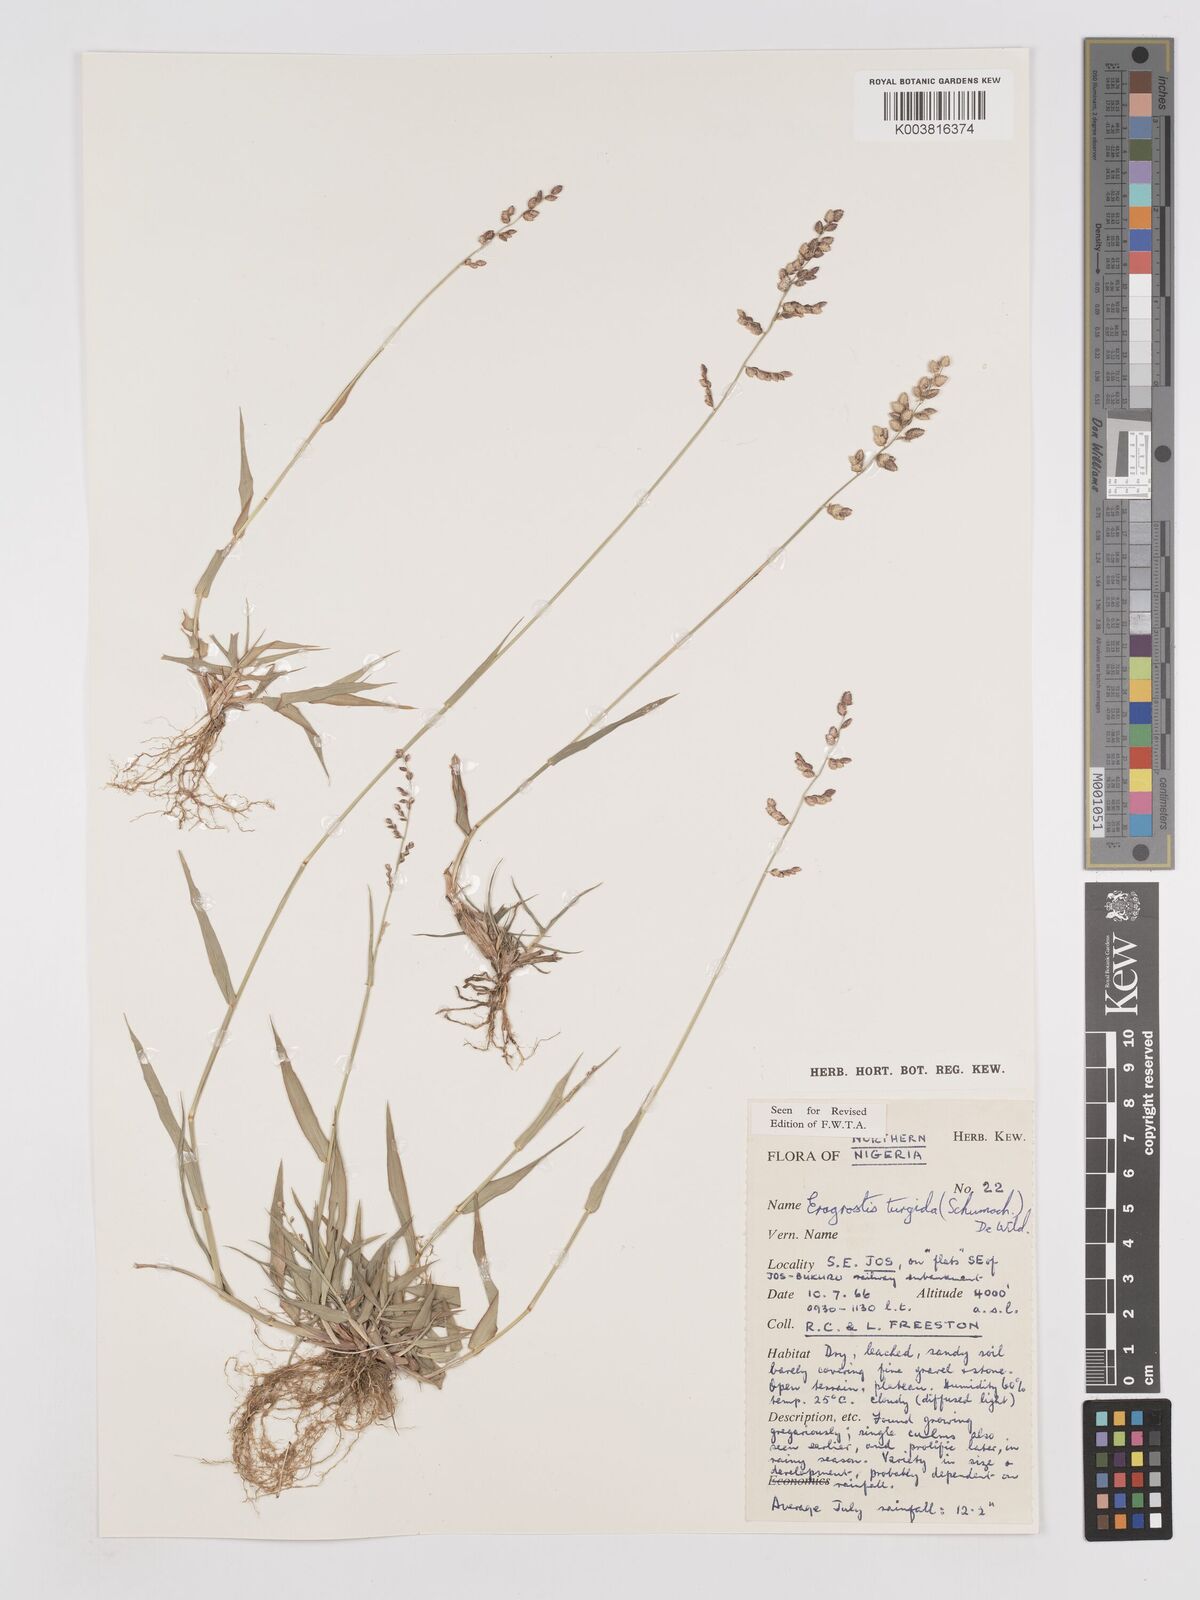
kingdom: Plantae
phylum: Tracheophyta
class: Liliopsida
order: Poales
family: Poaceae
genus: Eragrostis
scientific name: Eragrostis turgida
